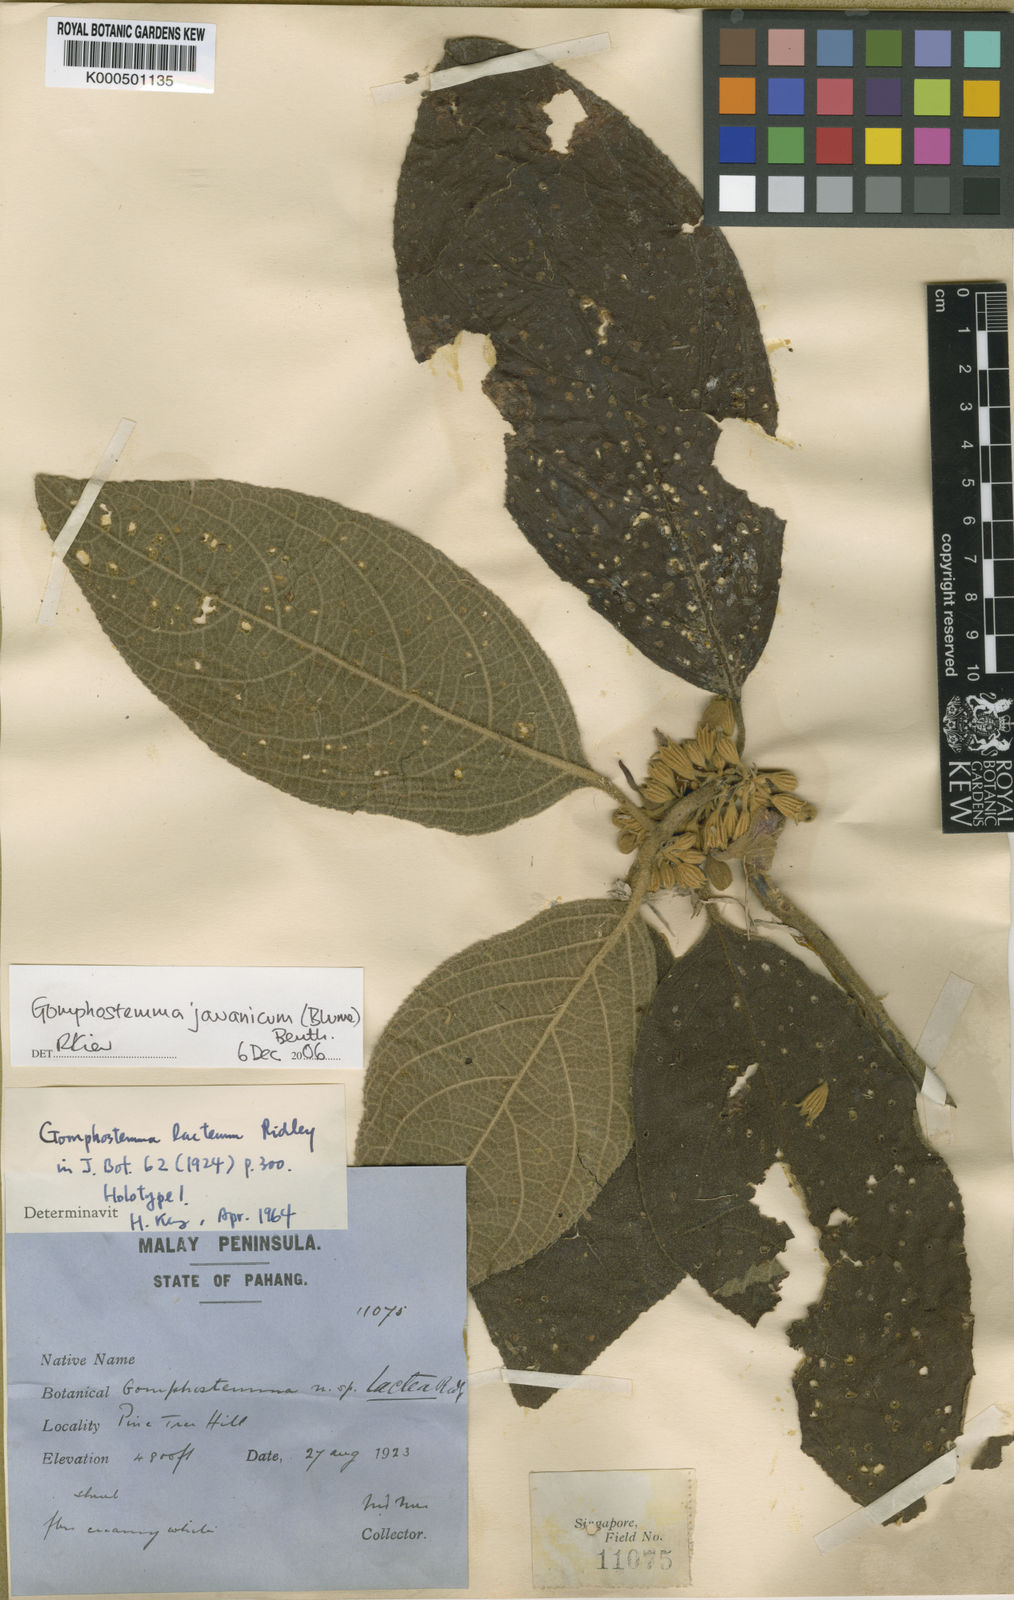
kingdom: Plantae
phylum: Tracheophyta
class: Magnoliopsida
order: Lamiales
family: Lamiaceae
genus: Gomphostemma
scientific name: Gomphostemma javanicum
